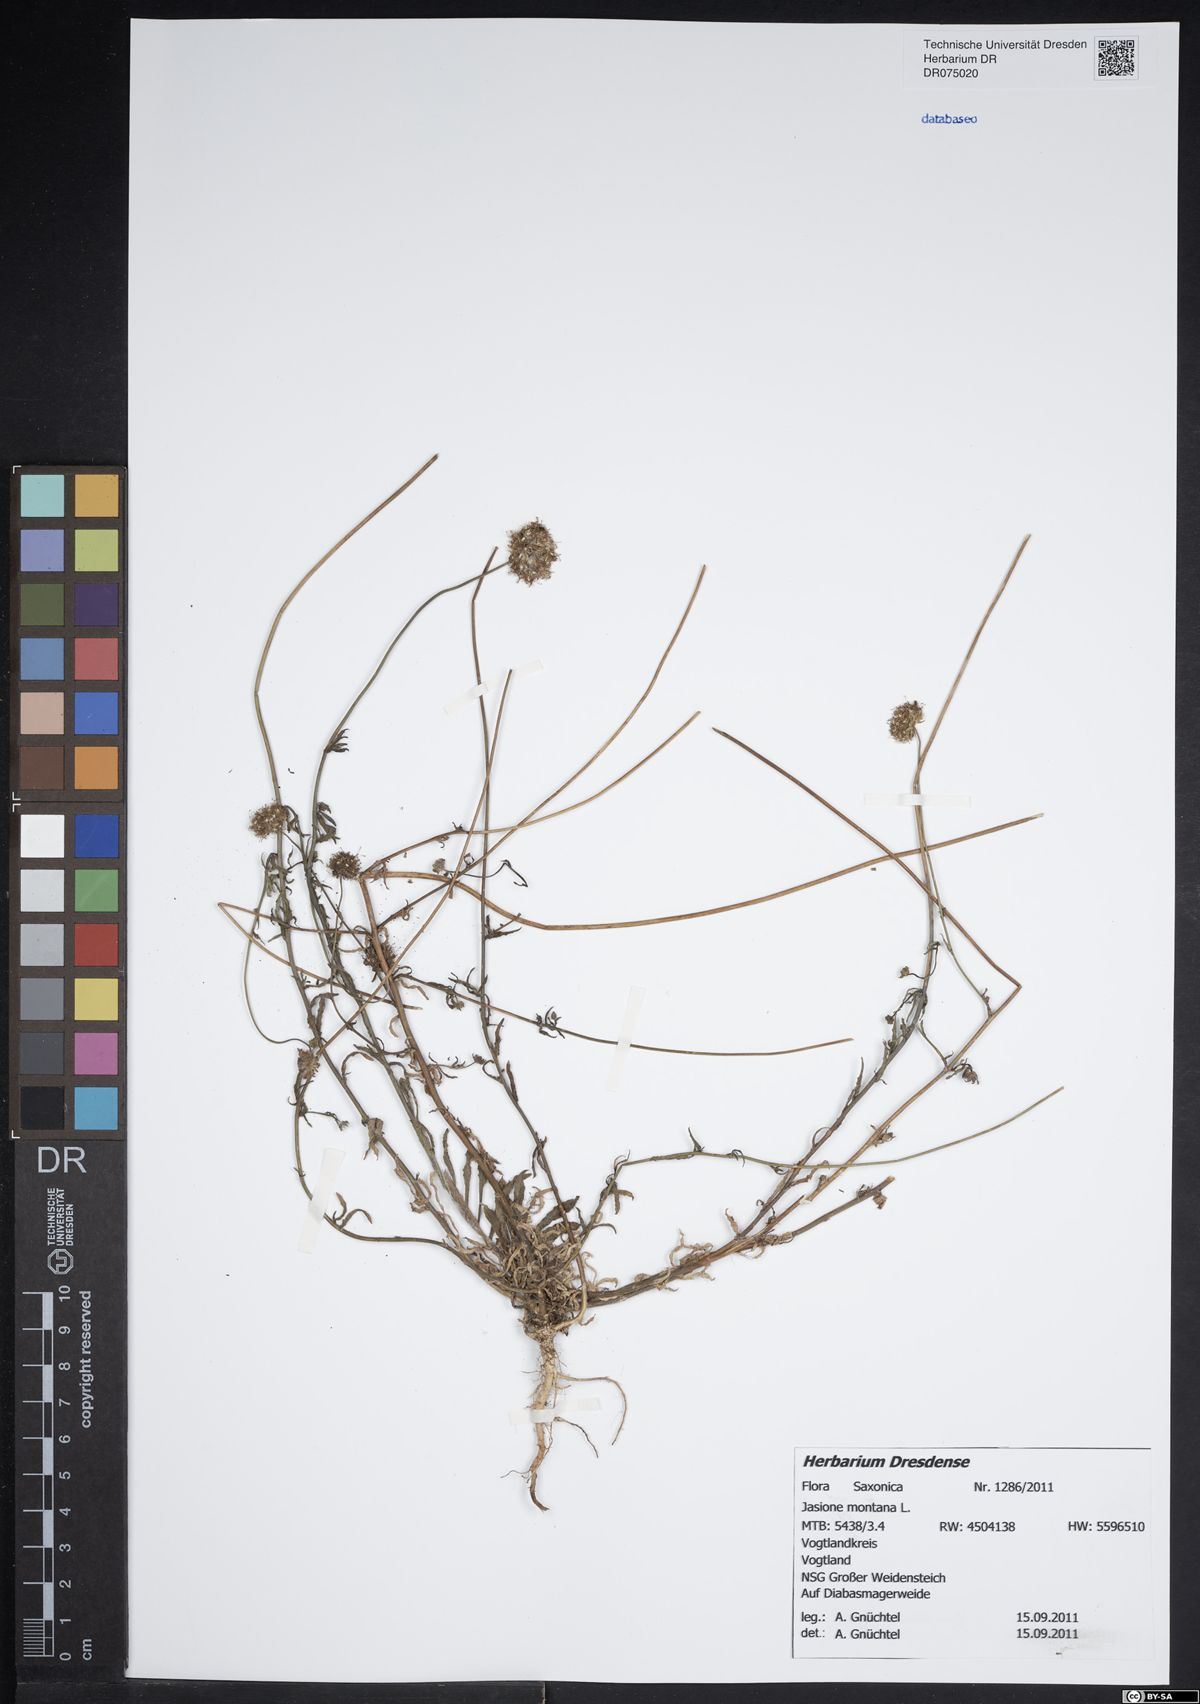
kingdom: Plantae
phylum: Tracheophyta
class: Magnoliopsida
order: Asterales
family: Campanulaceae
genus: Jasione
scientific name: Jasione montana
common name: Sheep's-bit
